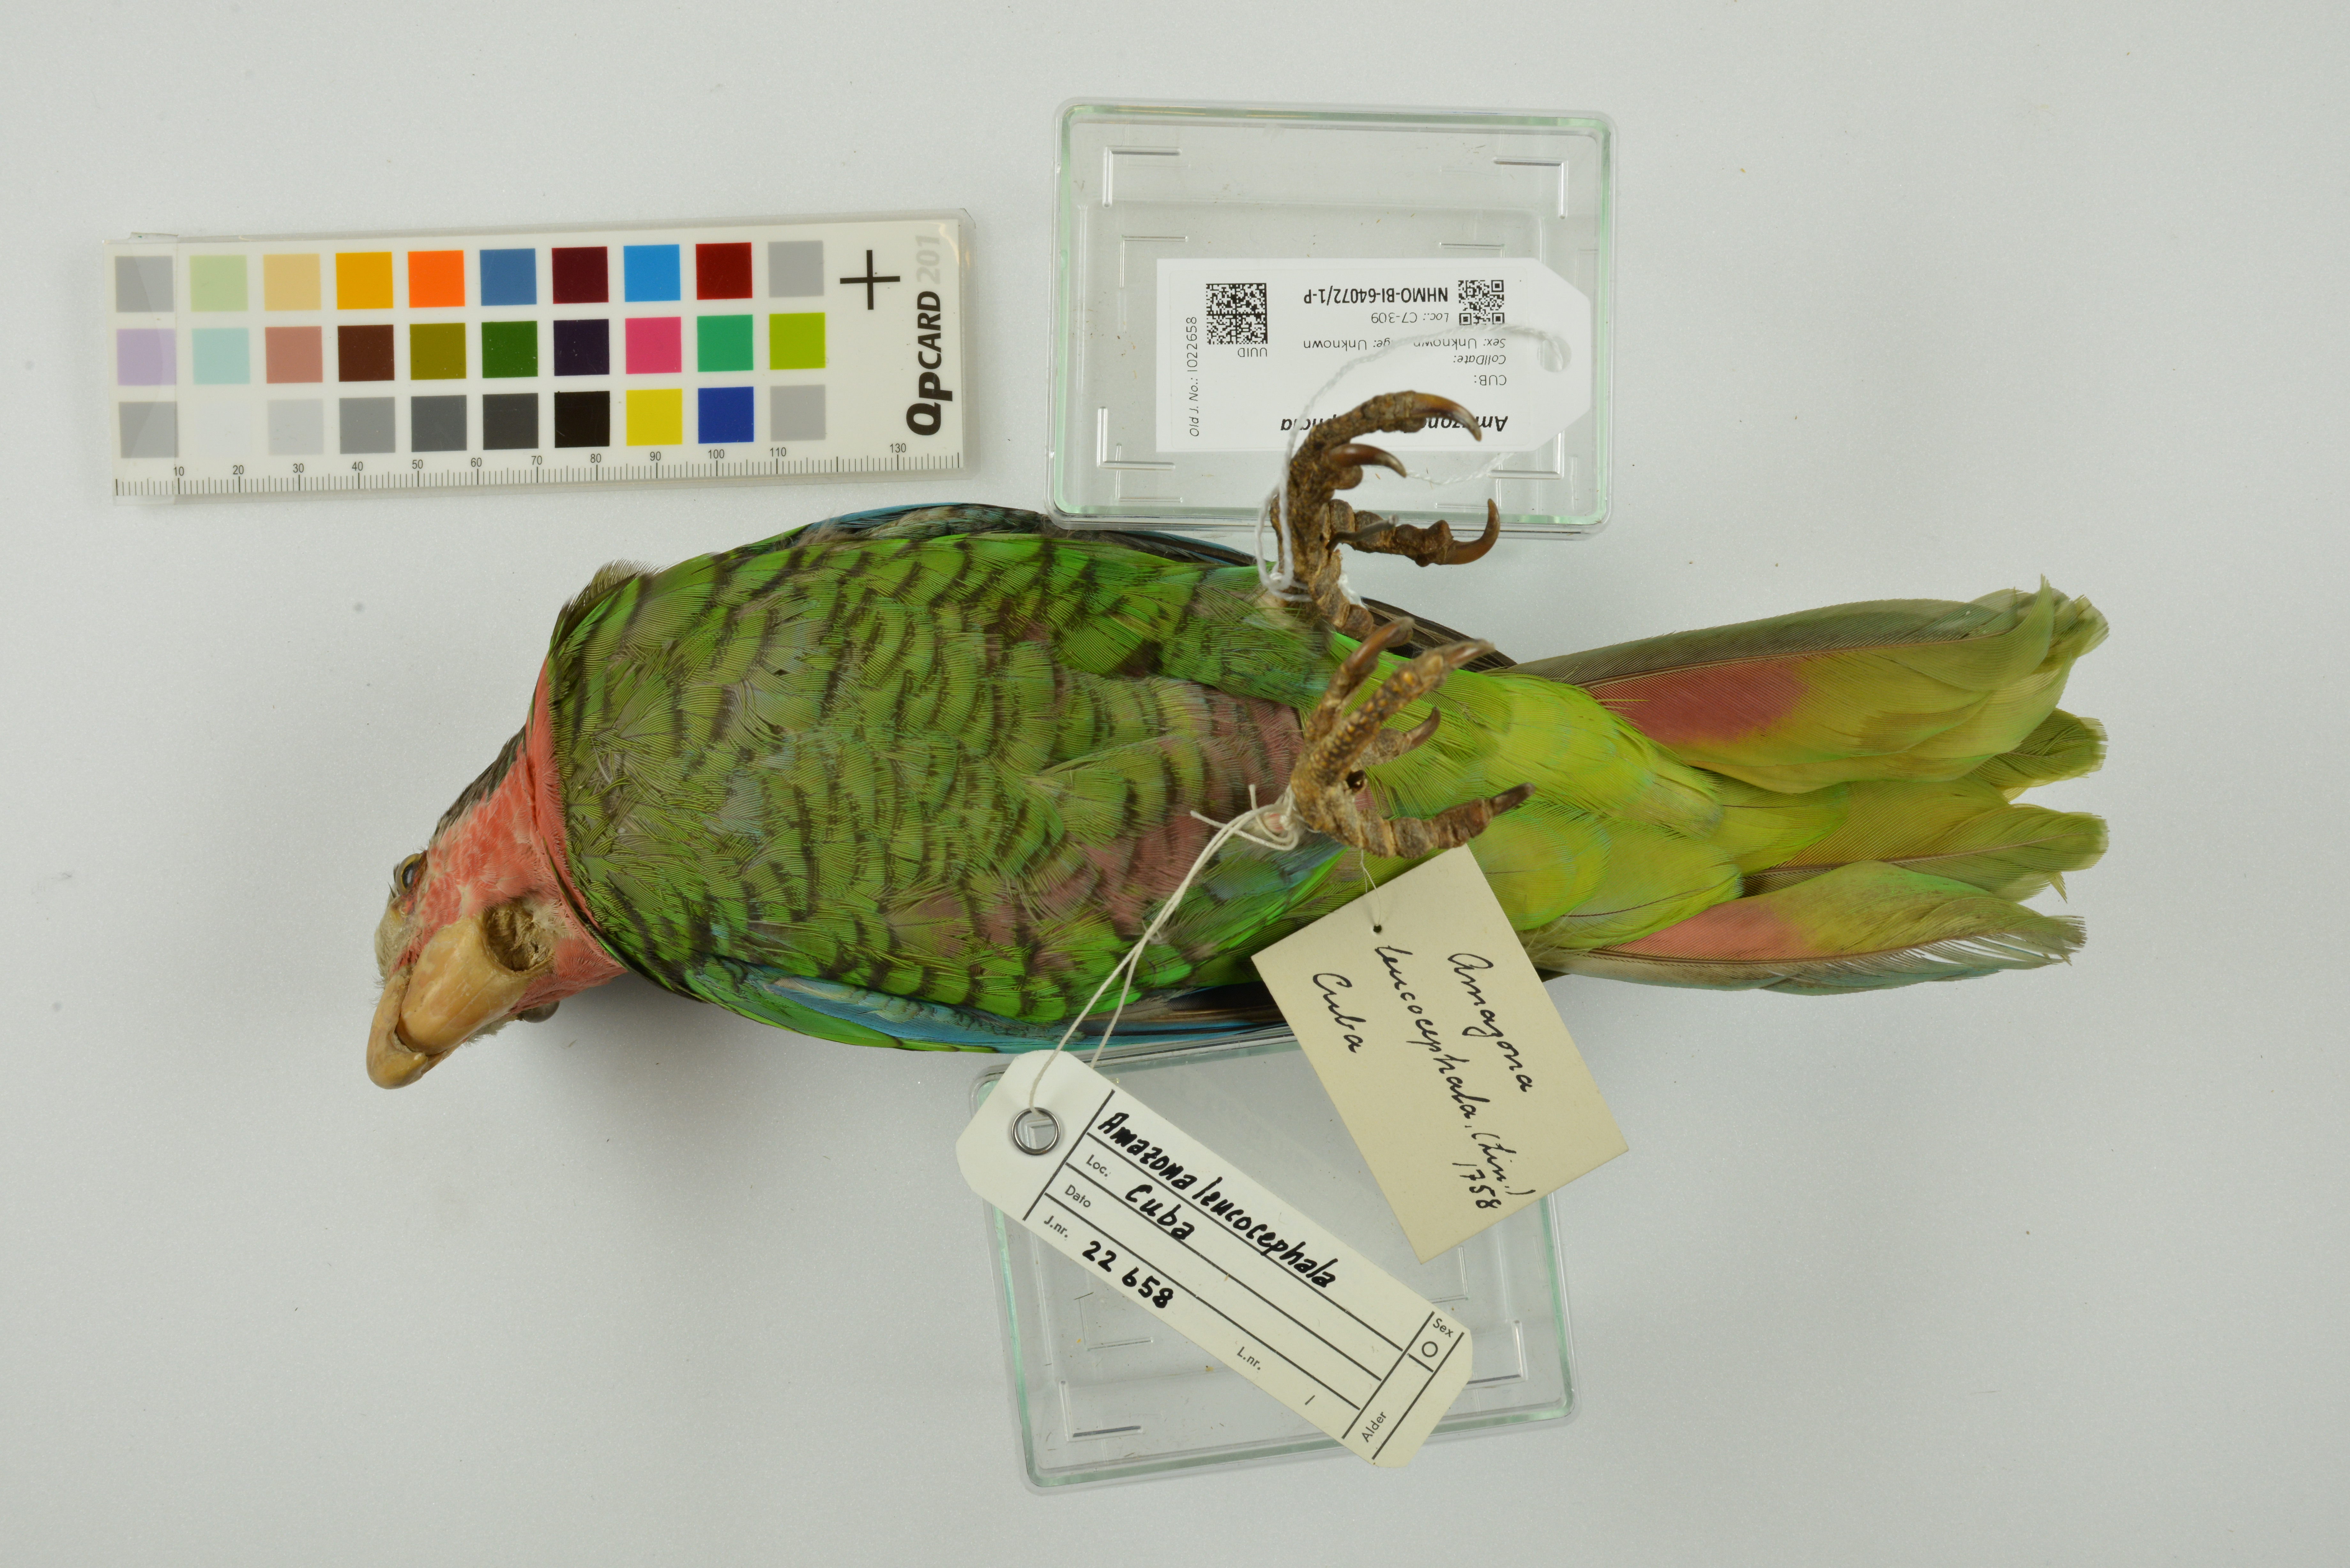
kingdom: Animalia
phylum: Chordata
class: Aves
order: Psittaciformes
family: Psittacidae
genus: Amazona
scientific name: Amazona leucocephala
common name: Cuban amazon
